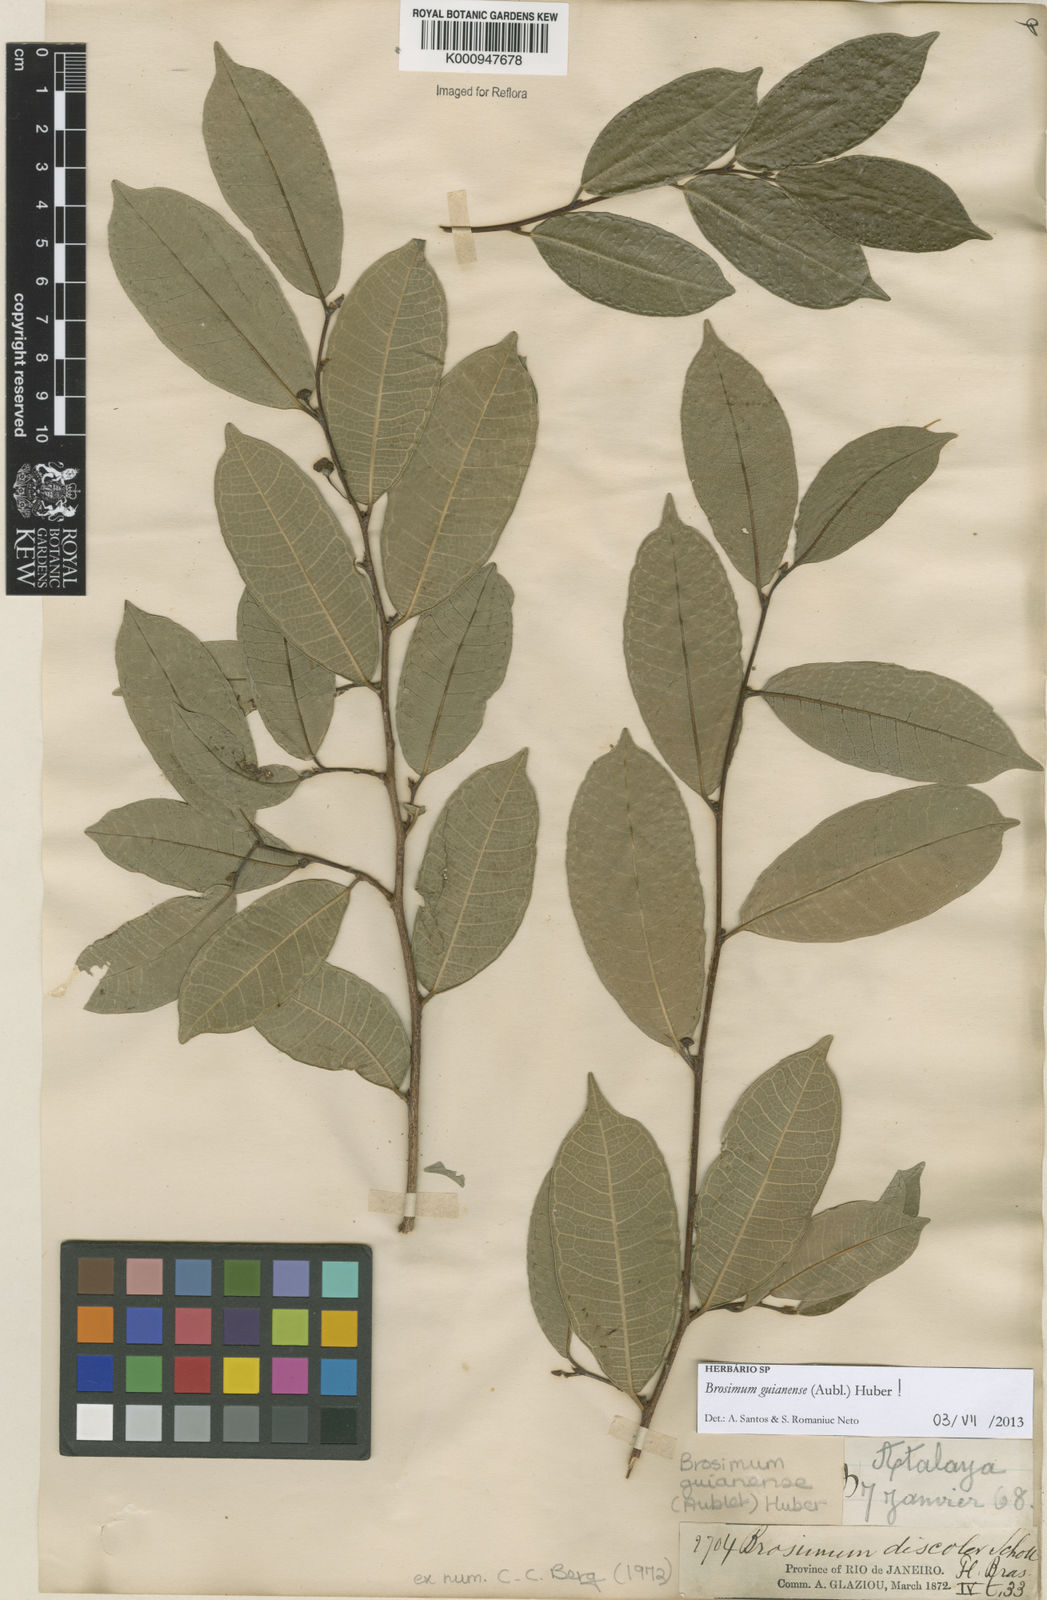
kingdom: Plantae
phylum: Tracheophyta
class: Magnoliopsida
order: Rosales
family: Moraceae
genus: Brosimum
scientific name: Brosimum
